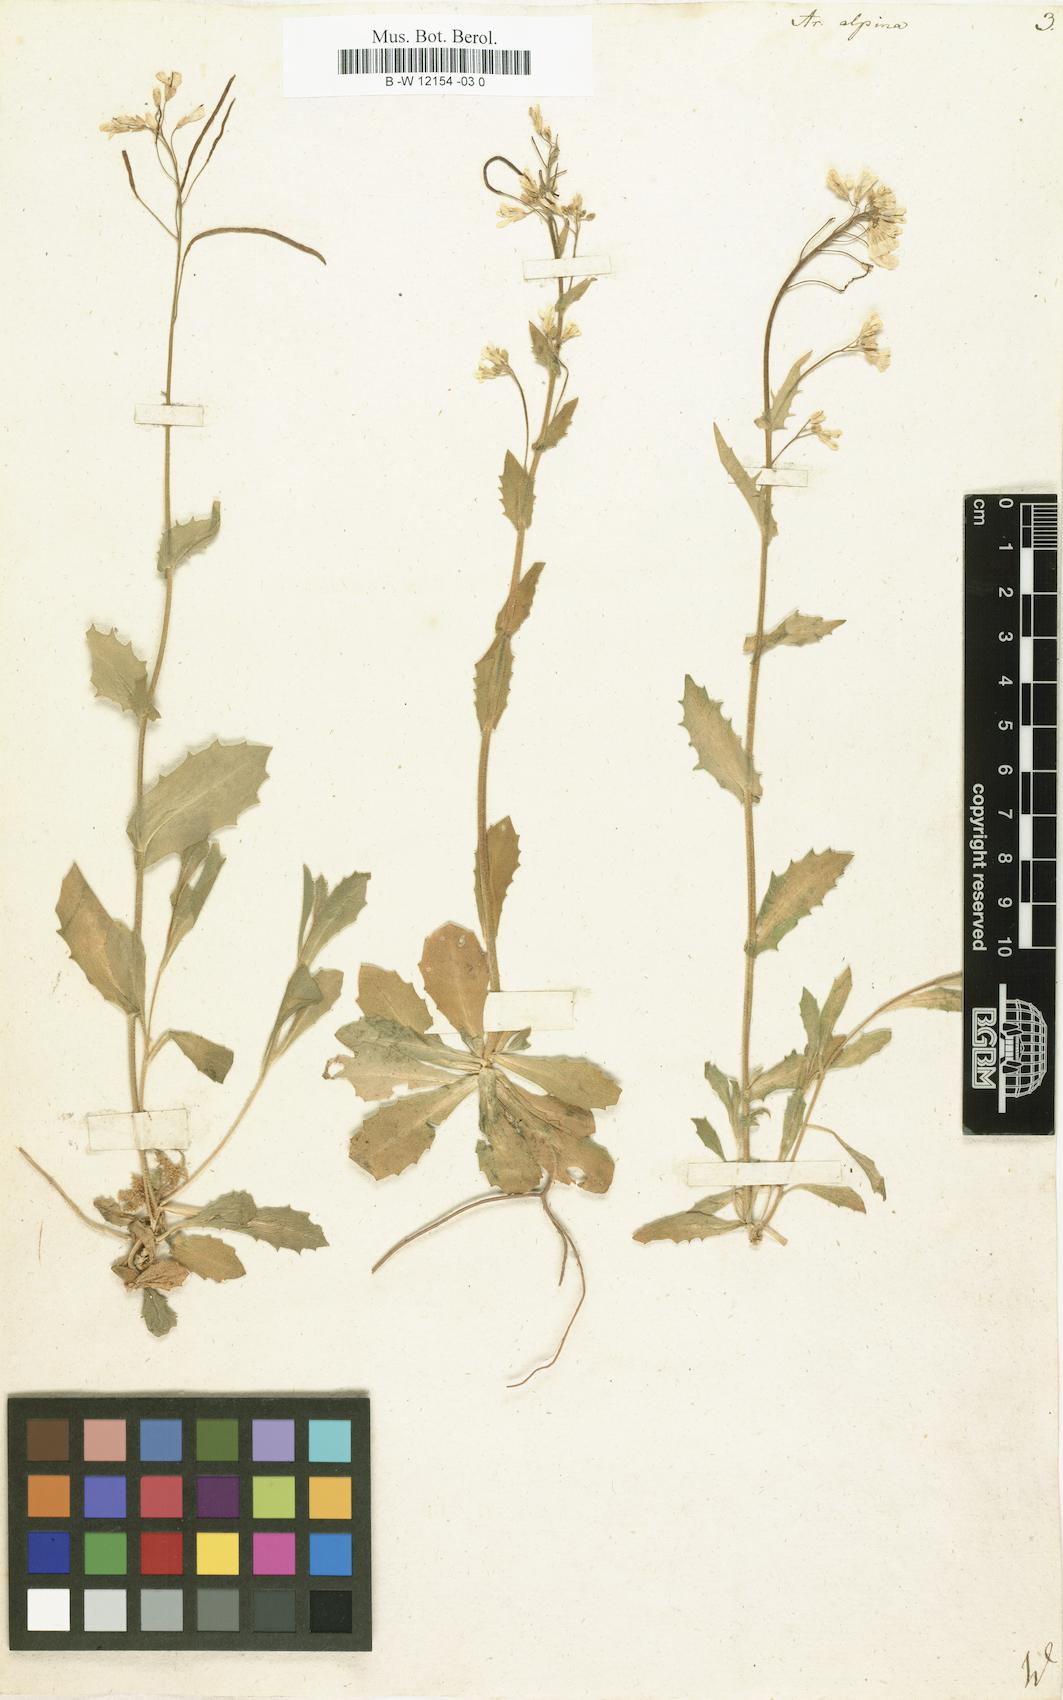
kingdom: Plantae
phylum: Tracheophyta
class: Magnoliopsida
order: Brassicales
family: Brassicaceae
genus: Arabis
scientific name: Arabis alpina
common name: Alpine rock-cress
